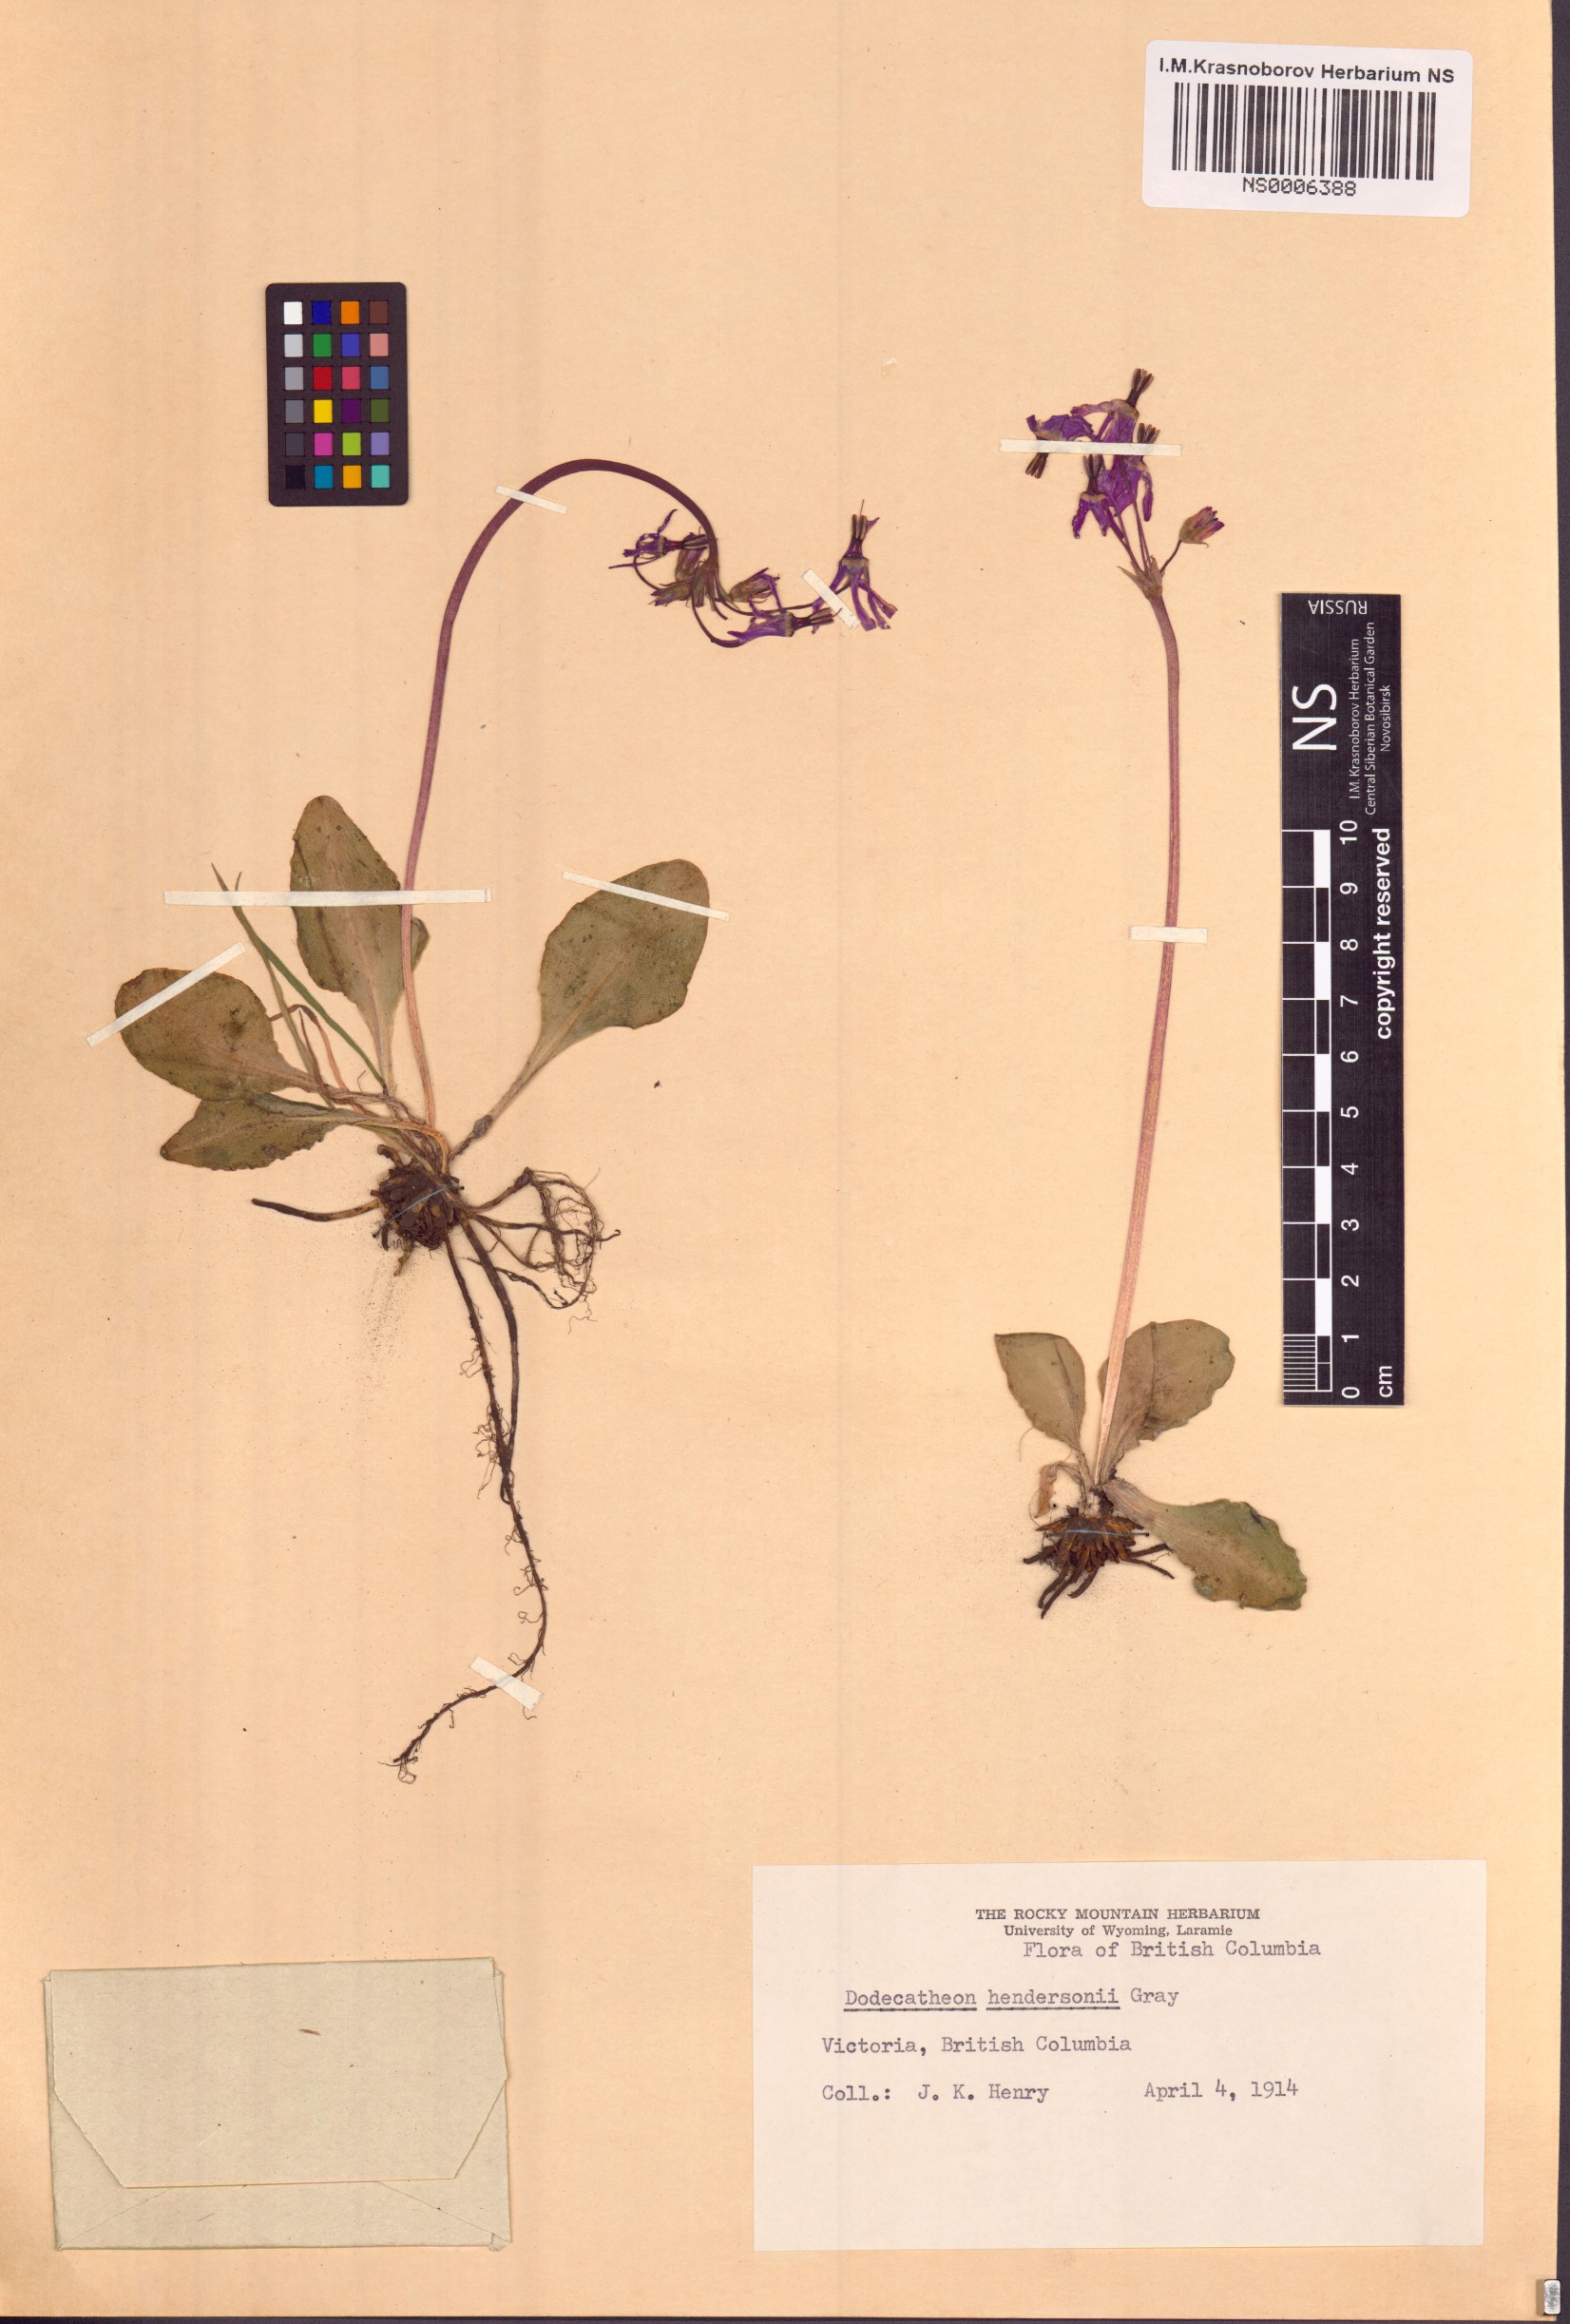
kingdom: Plantae
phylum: Tracheophyta
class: Magnoliopsida
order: Ericales
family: Primulaceae
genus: Dodecatheon
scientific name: Dodecatheon hendersonii
